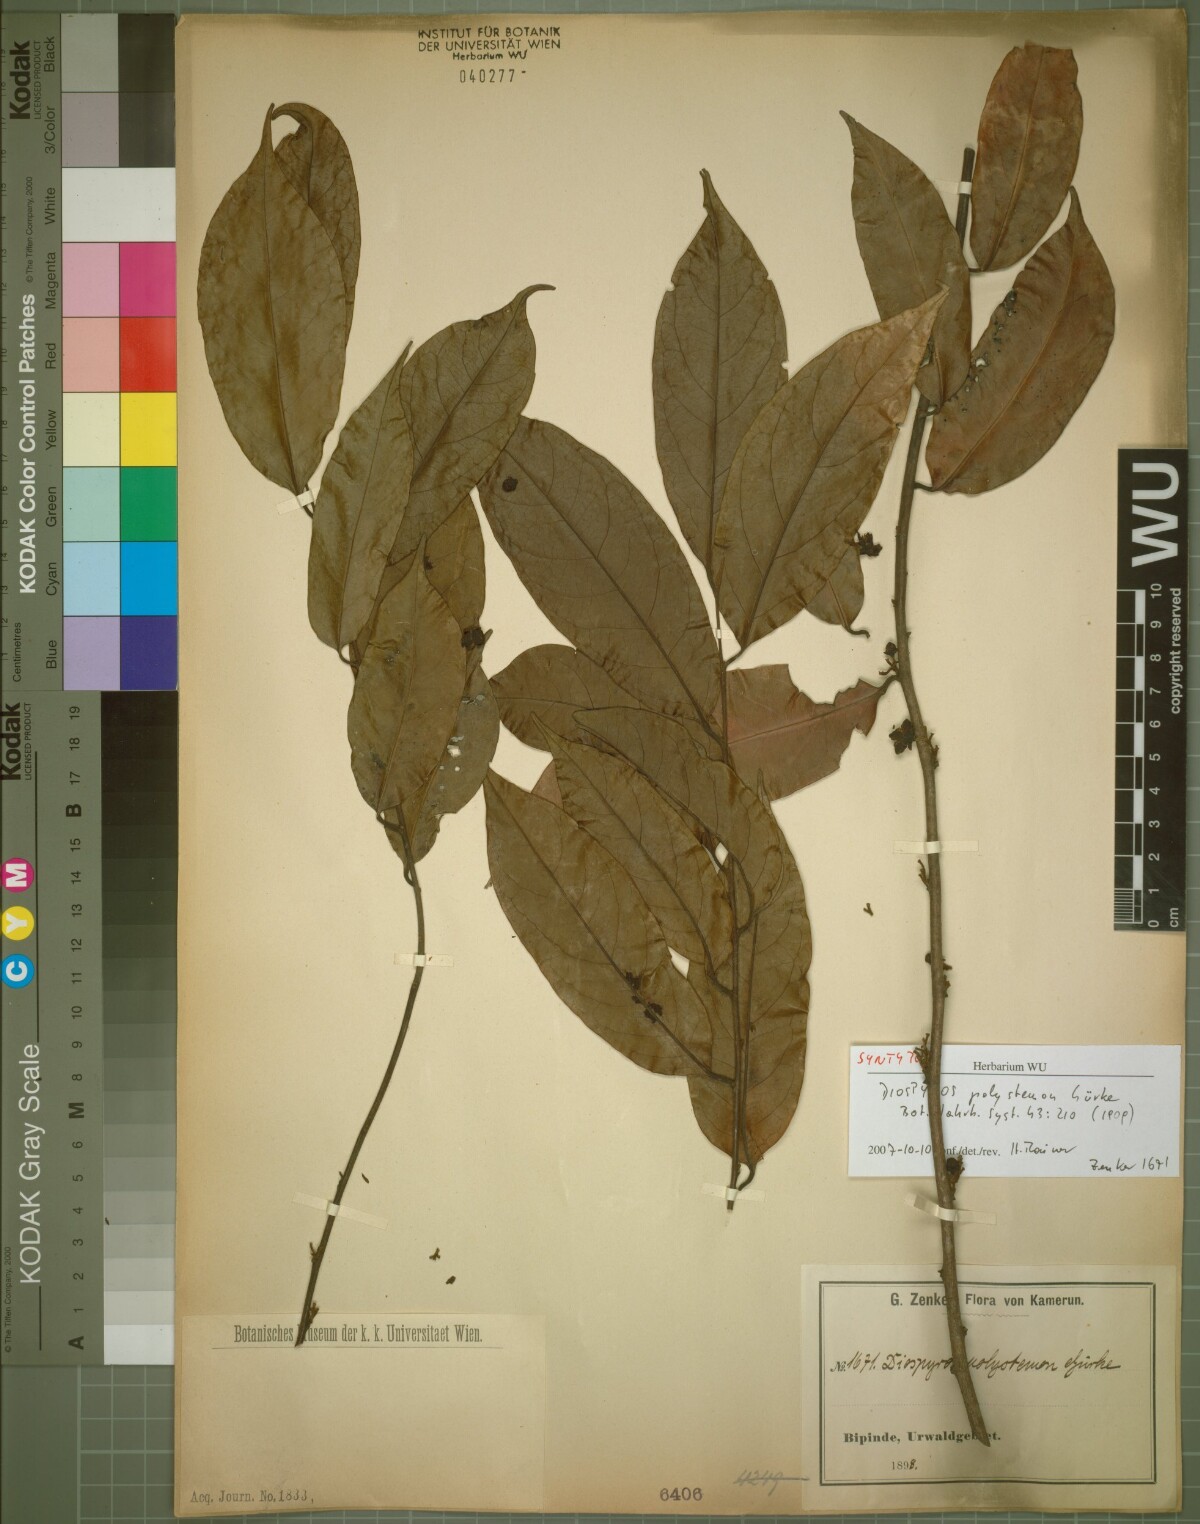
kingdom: Plantae
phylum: Tracheophyta
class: Magnoliopsida
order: Ericales
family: Ebenaceae
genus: Diospyros
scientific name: Diospyros polystemon
